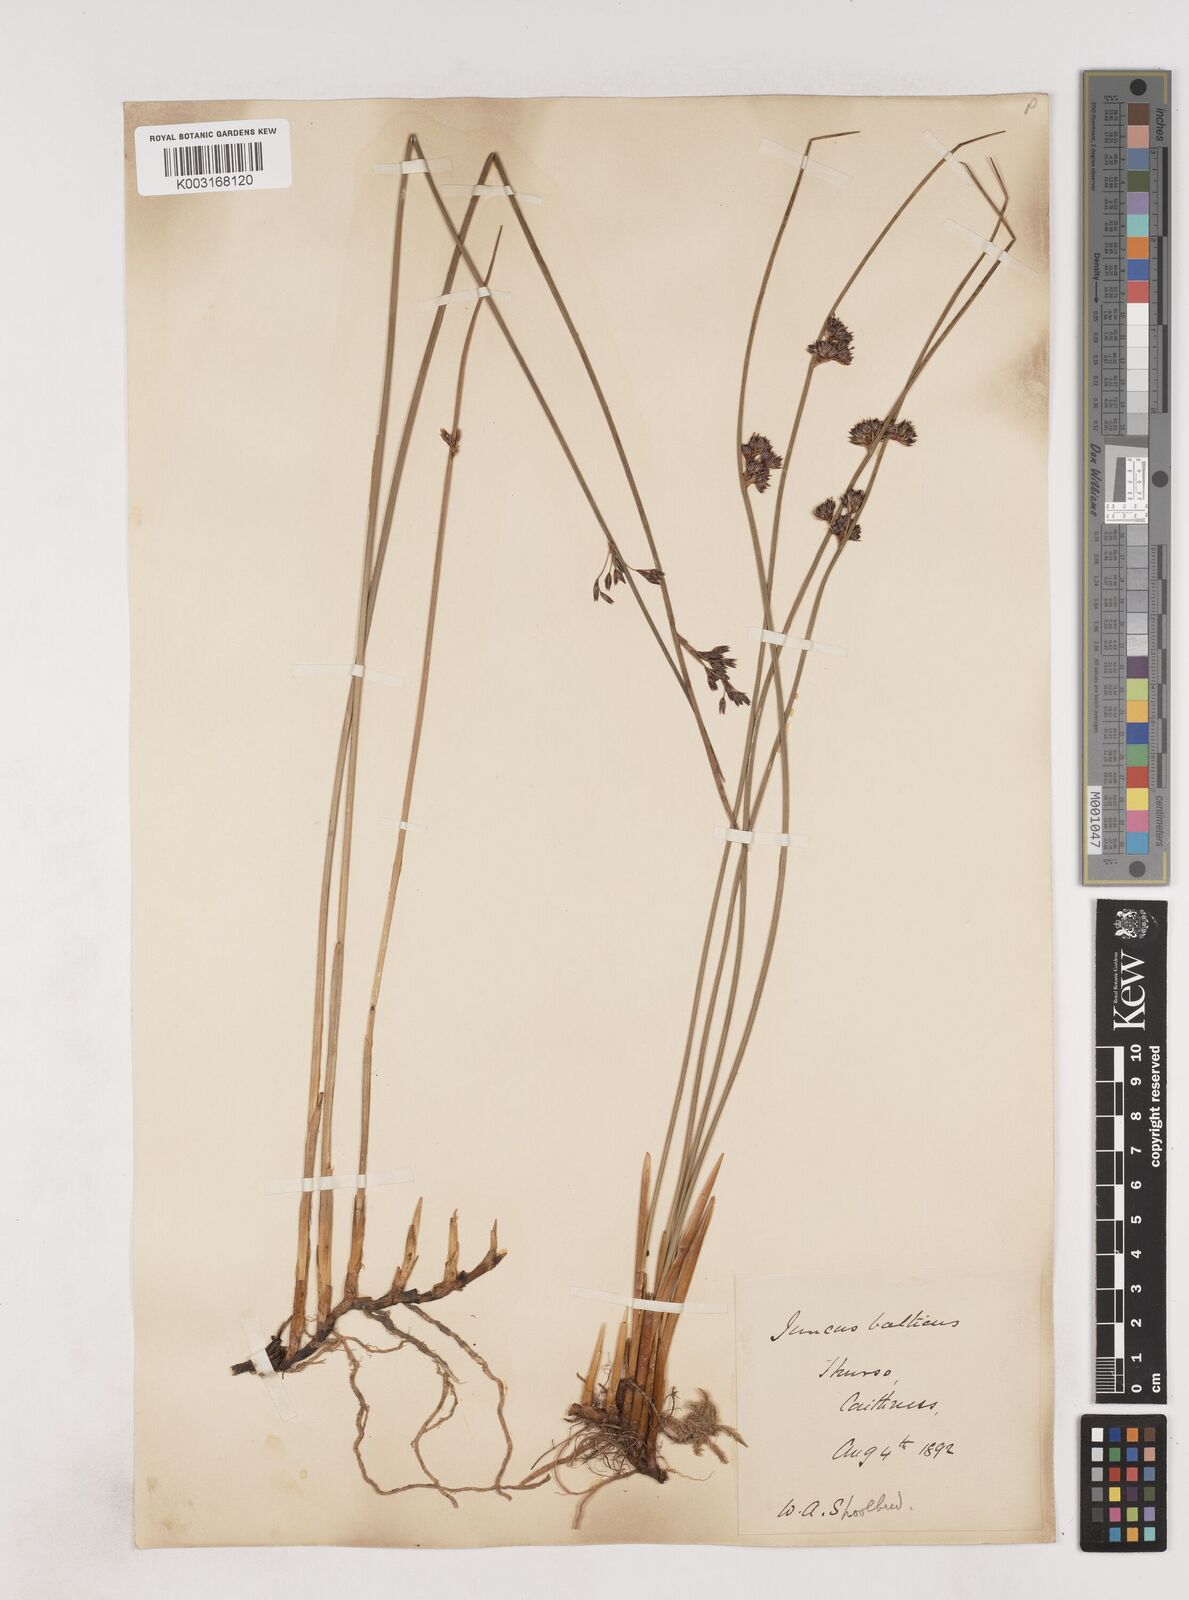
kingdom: Plantae
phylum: Tracheophyta
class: Liliopsida
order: Poales
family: Juncaceae
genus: Juncus
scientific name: Juncus balticus
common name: Baltic rush
